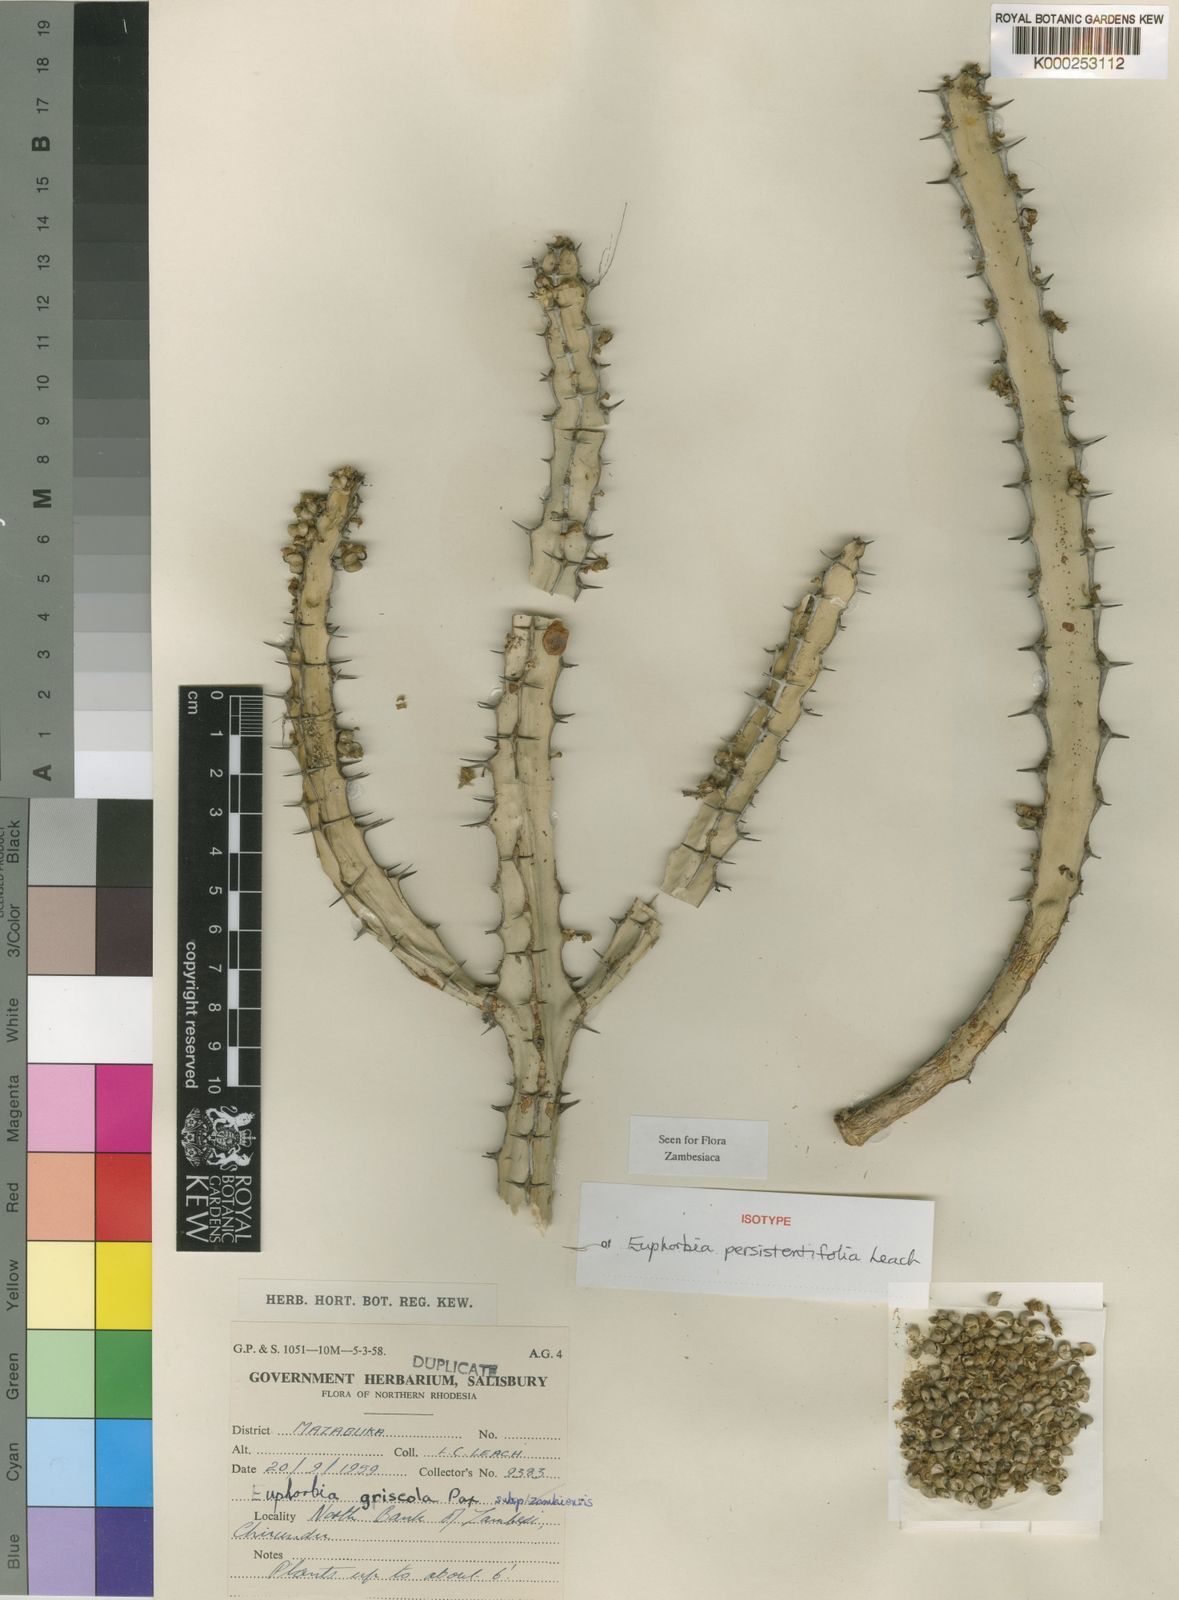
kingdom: Plantae
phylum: Tracheophyta
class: Magnoliopsida
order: Malpighiales
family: Euphorbiaceae
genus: Euphorbia
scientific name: Euphorbia persistentifolia
